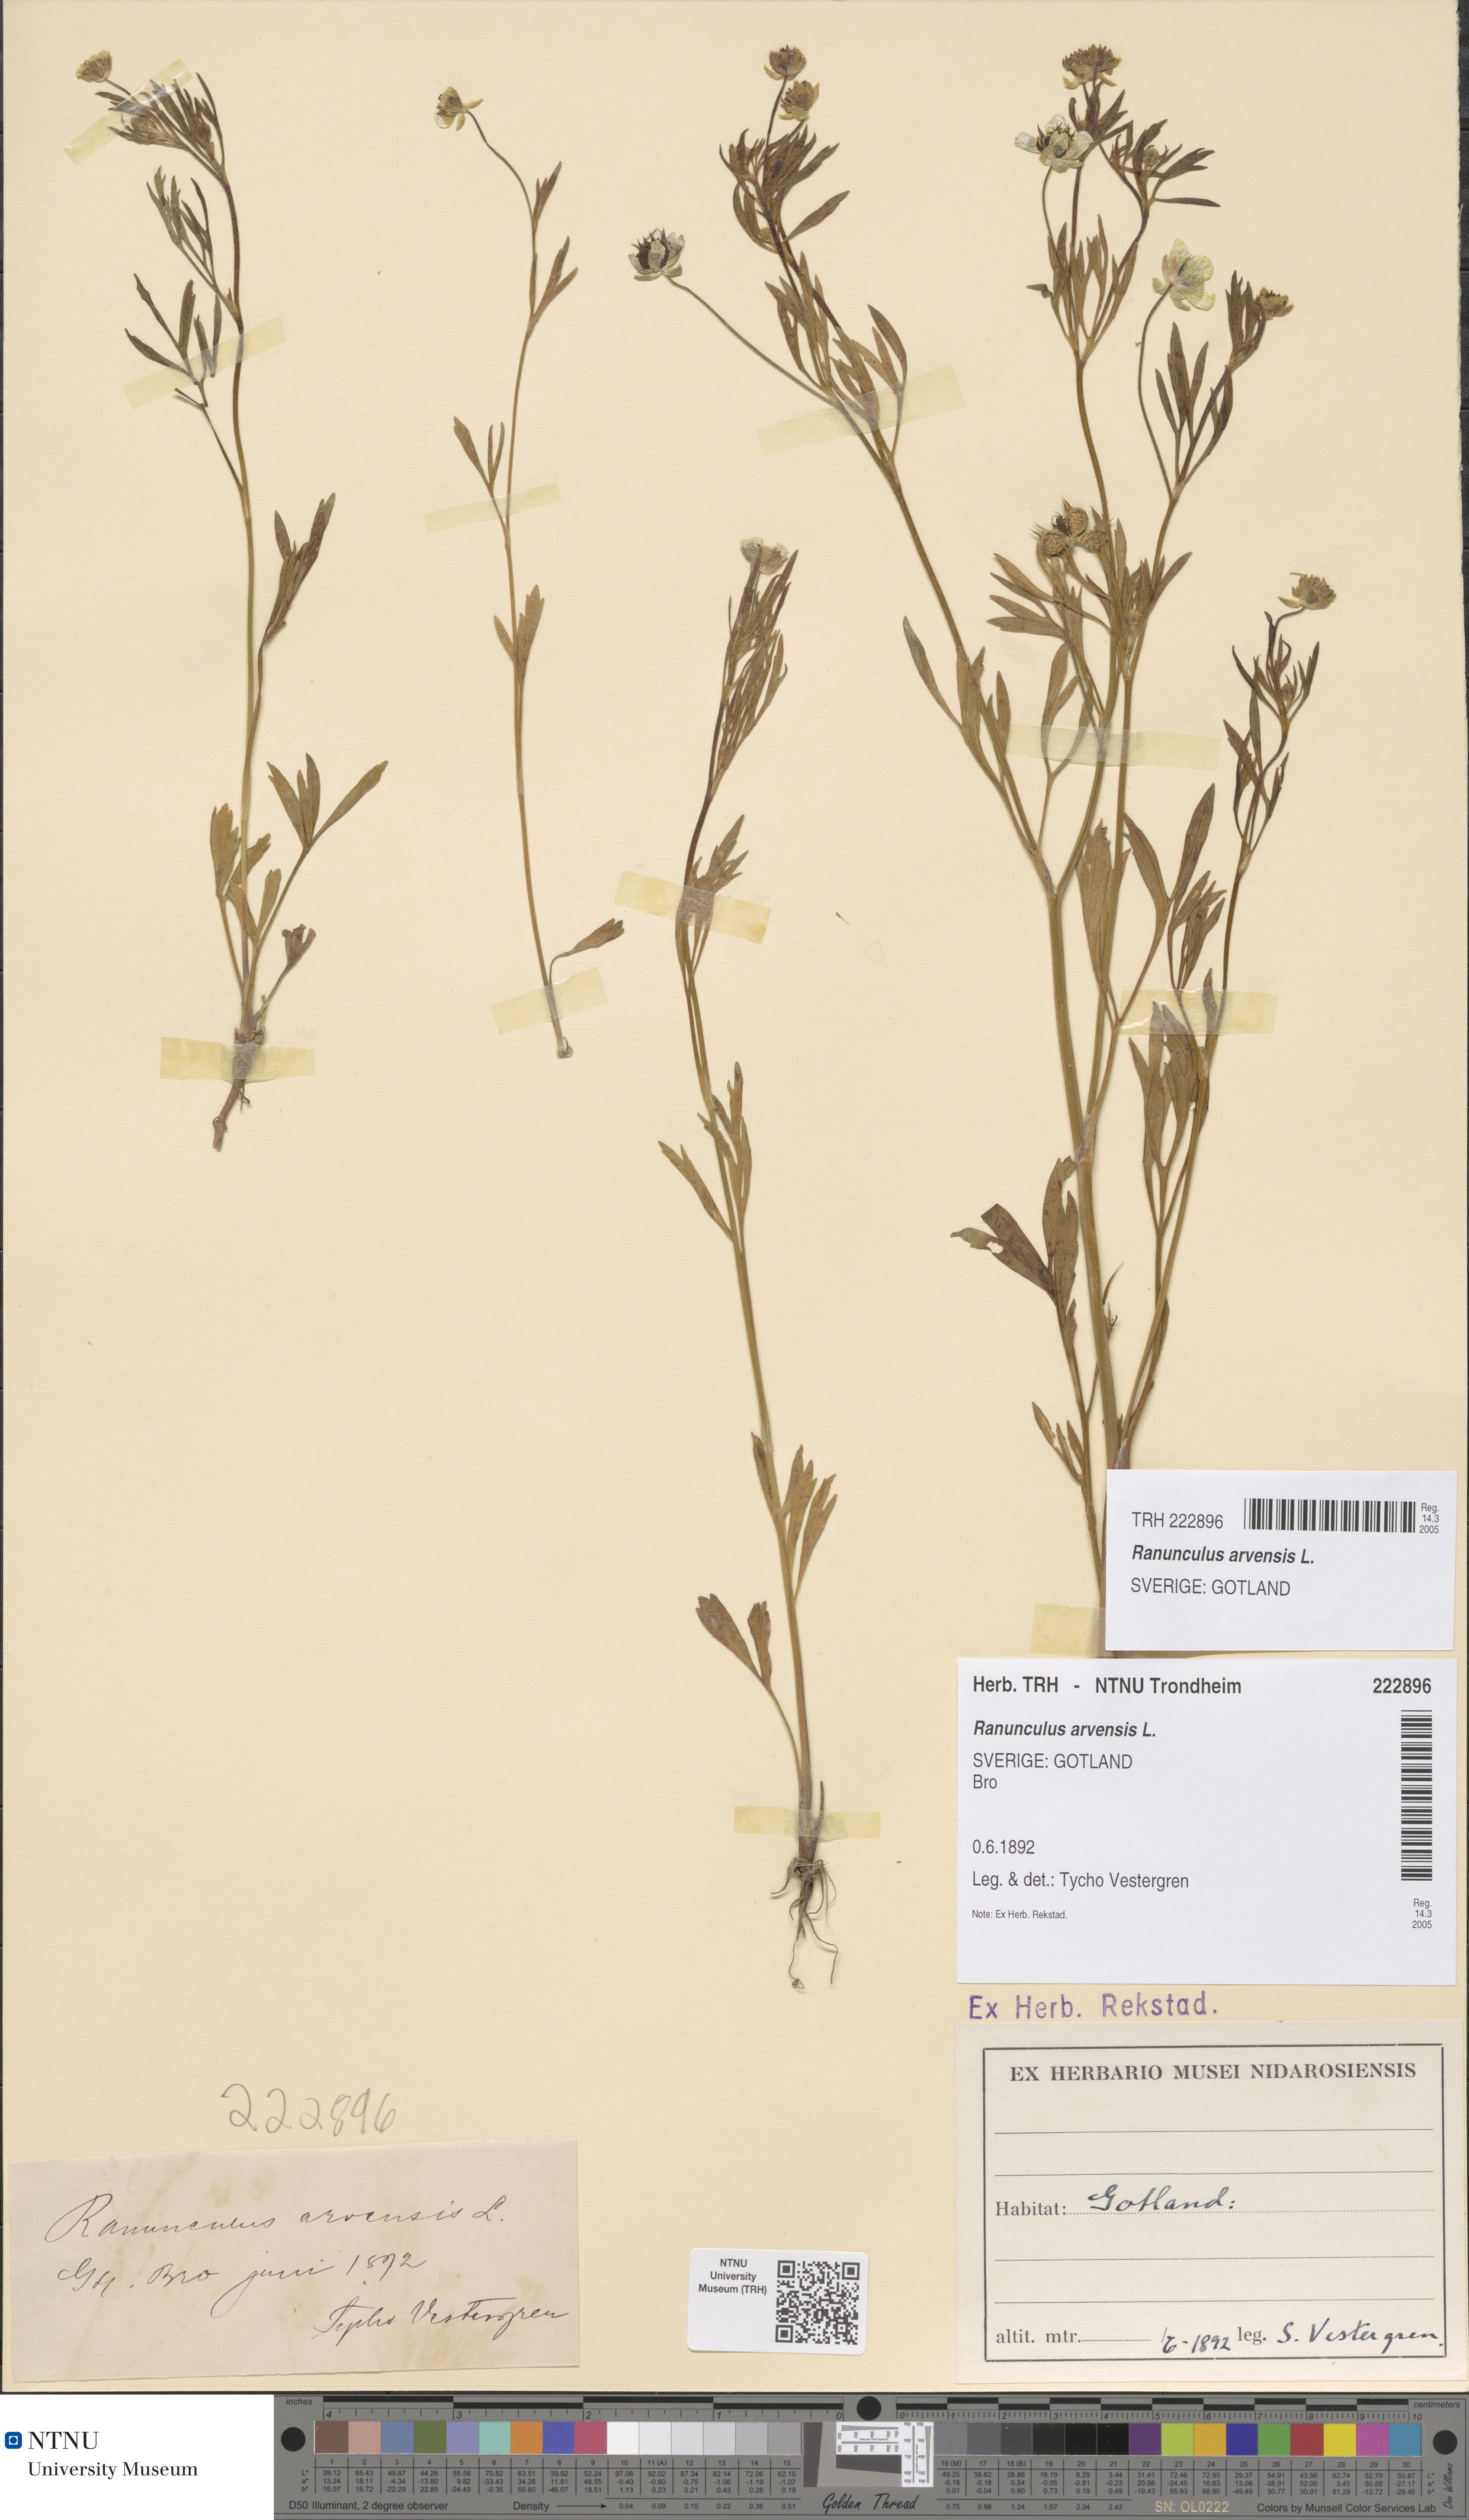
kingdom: Plantae
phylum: Tracheophyta
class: Magnoliopsida
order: Ranunculales
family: Ranunculaceae
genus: Ranunculus
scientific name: Ranunculus arvensis
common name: Corn buttercup
